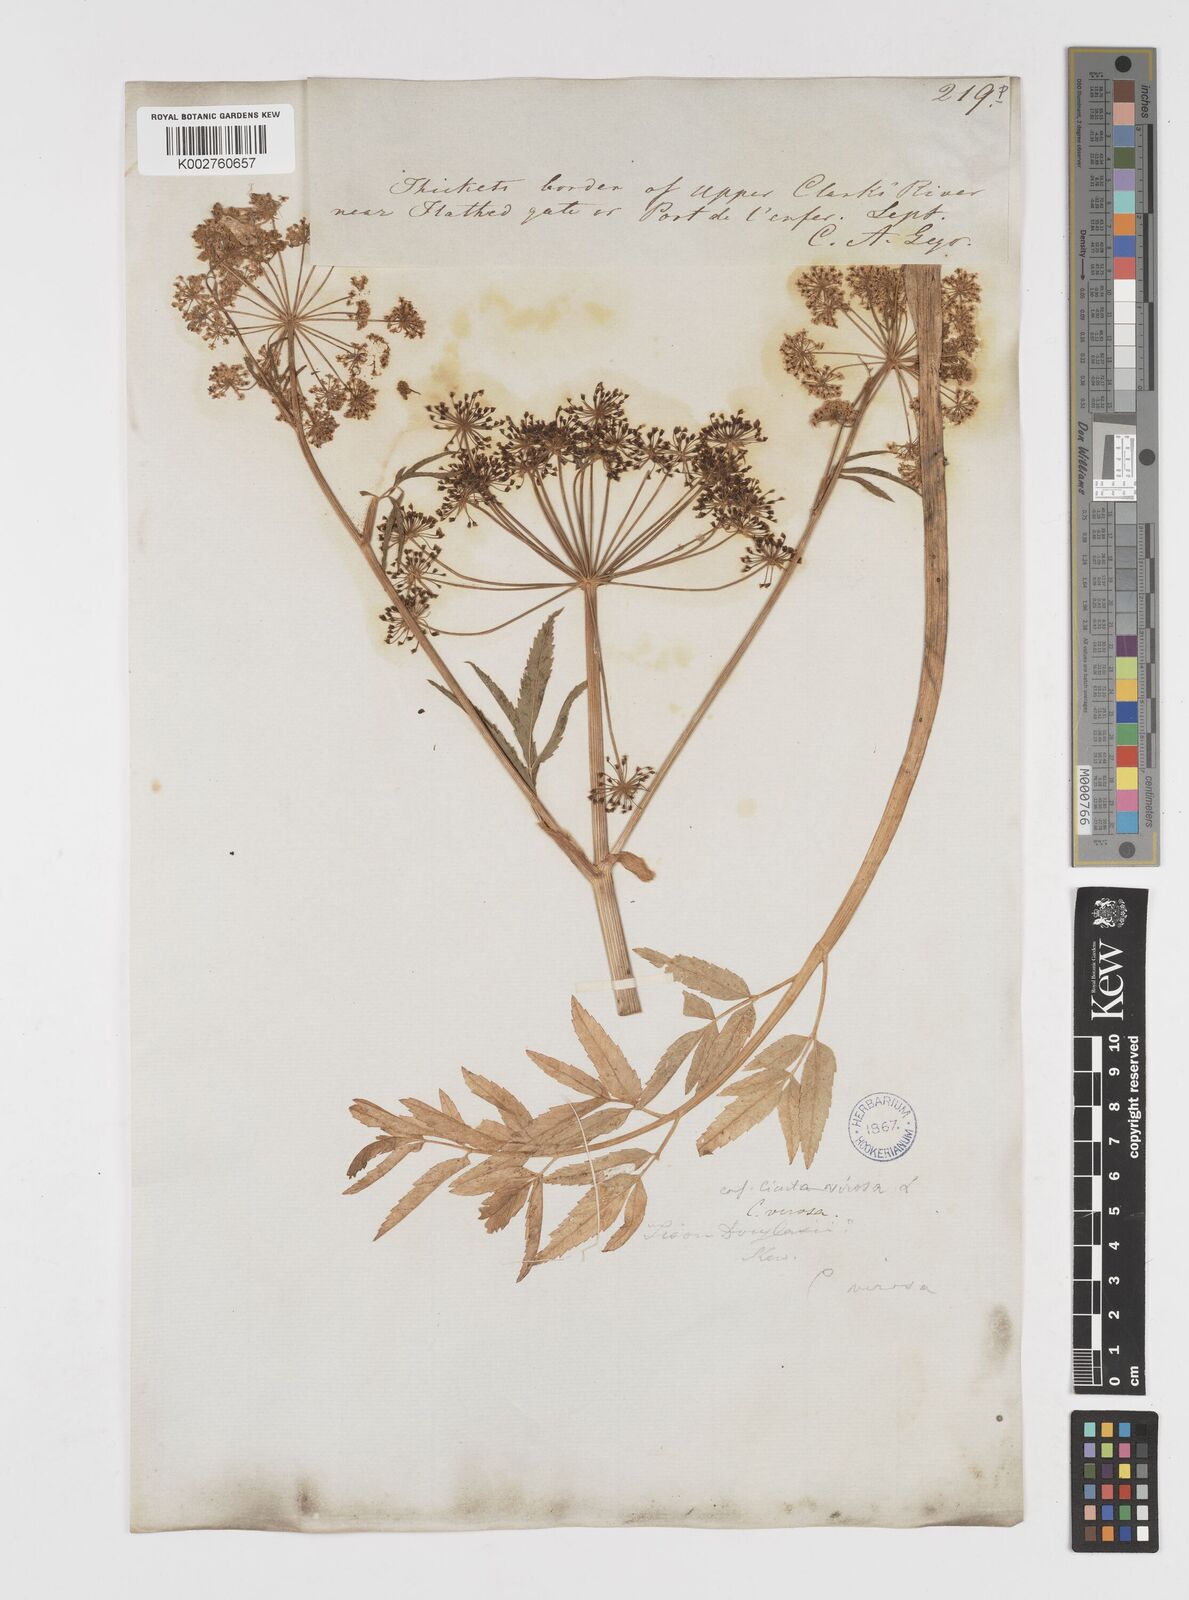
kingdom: Plantae
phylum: Tracheophyta
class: Magnoliopsida
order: Apiales
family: Apiaceae
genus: Cicuta
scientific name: Cicuta douglasii
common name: Western water-hemlock
